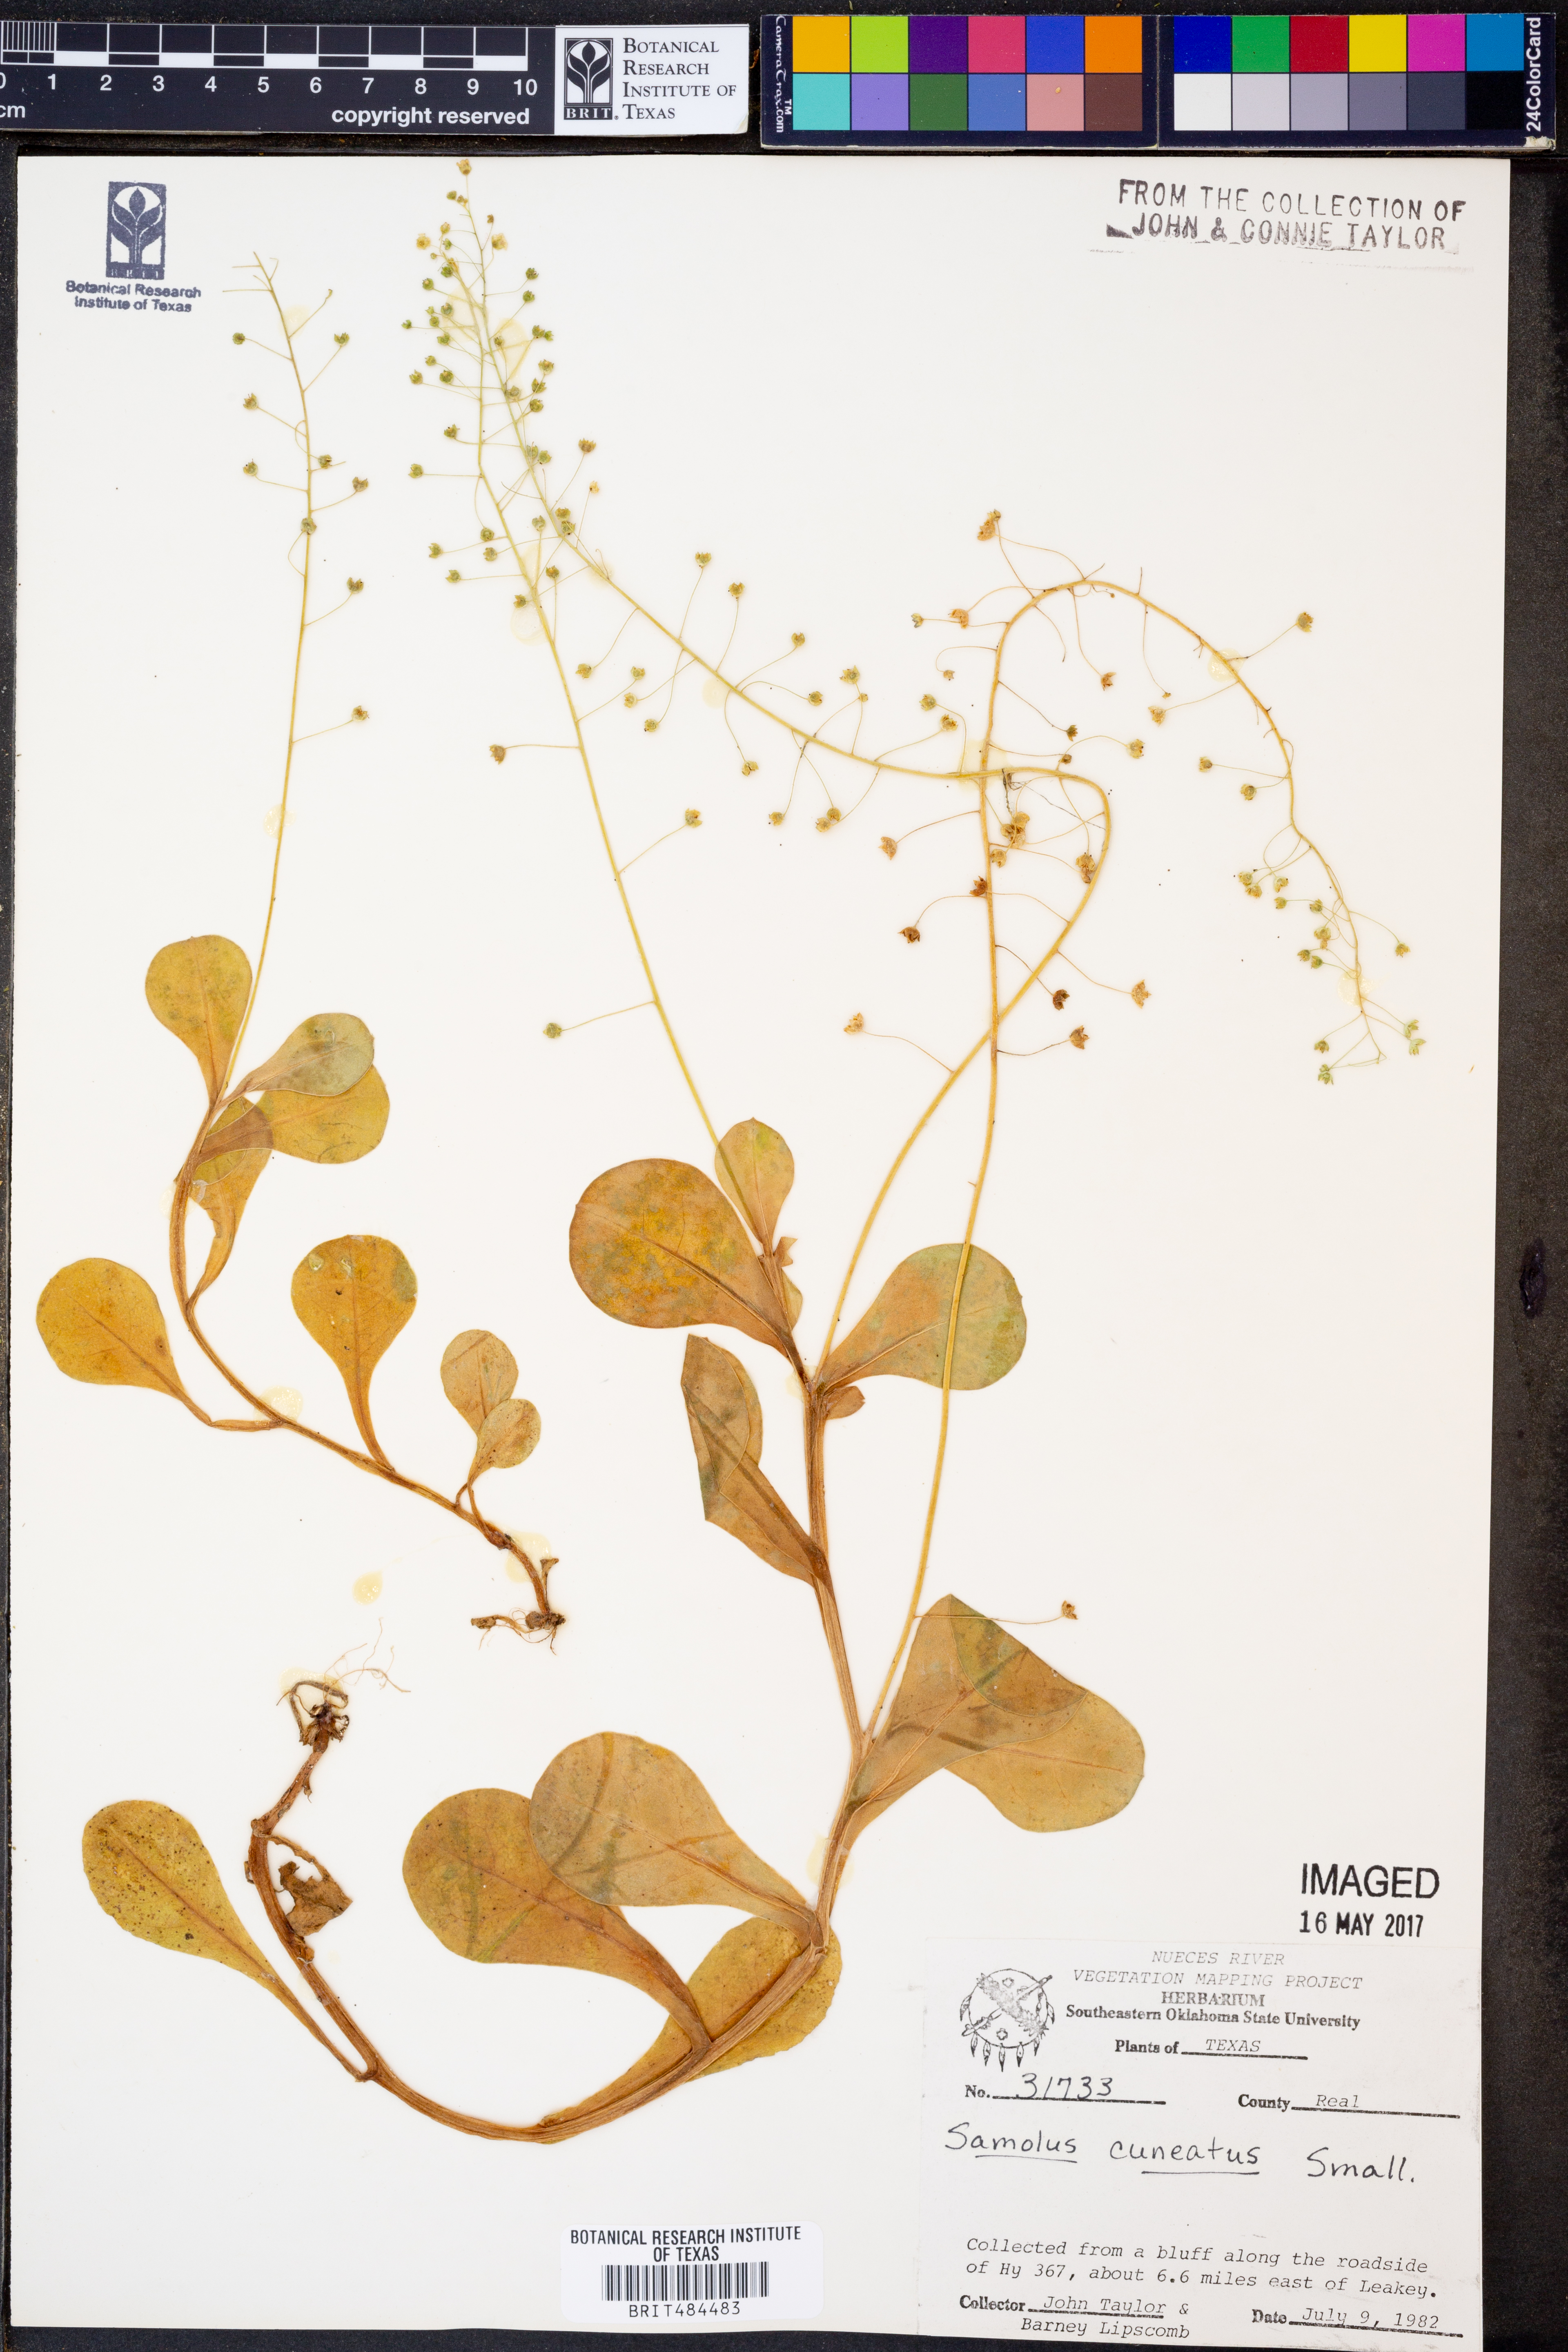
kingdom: Plantae
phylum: Tracheophyta
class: Magnoliopsida
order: Ericales
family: Primulaceae
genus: Samolus
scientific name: Samolus ebracteatus
